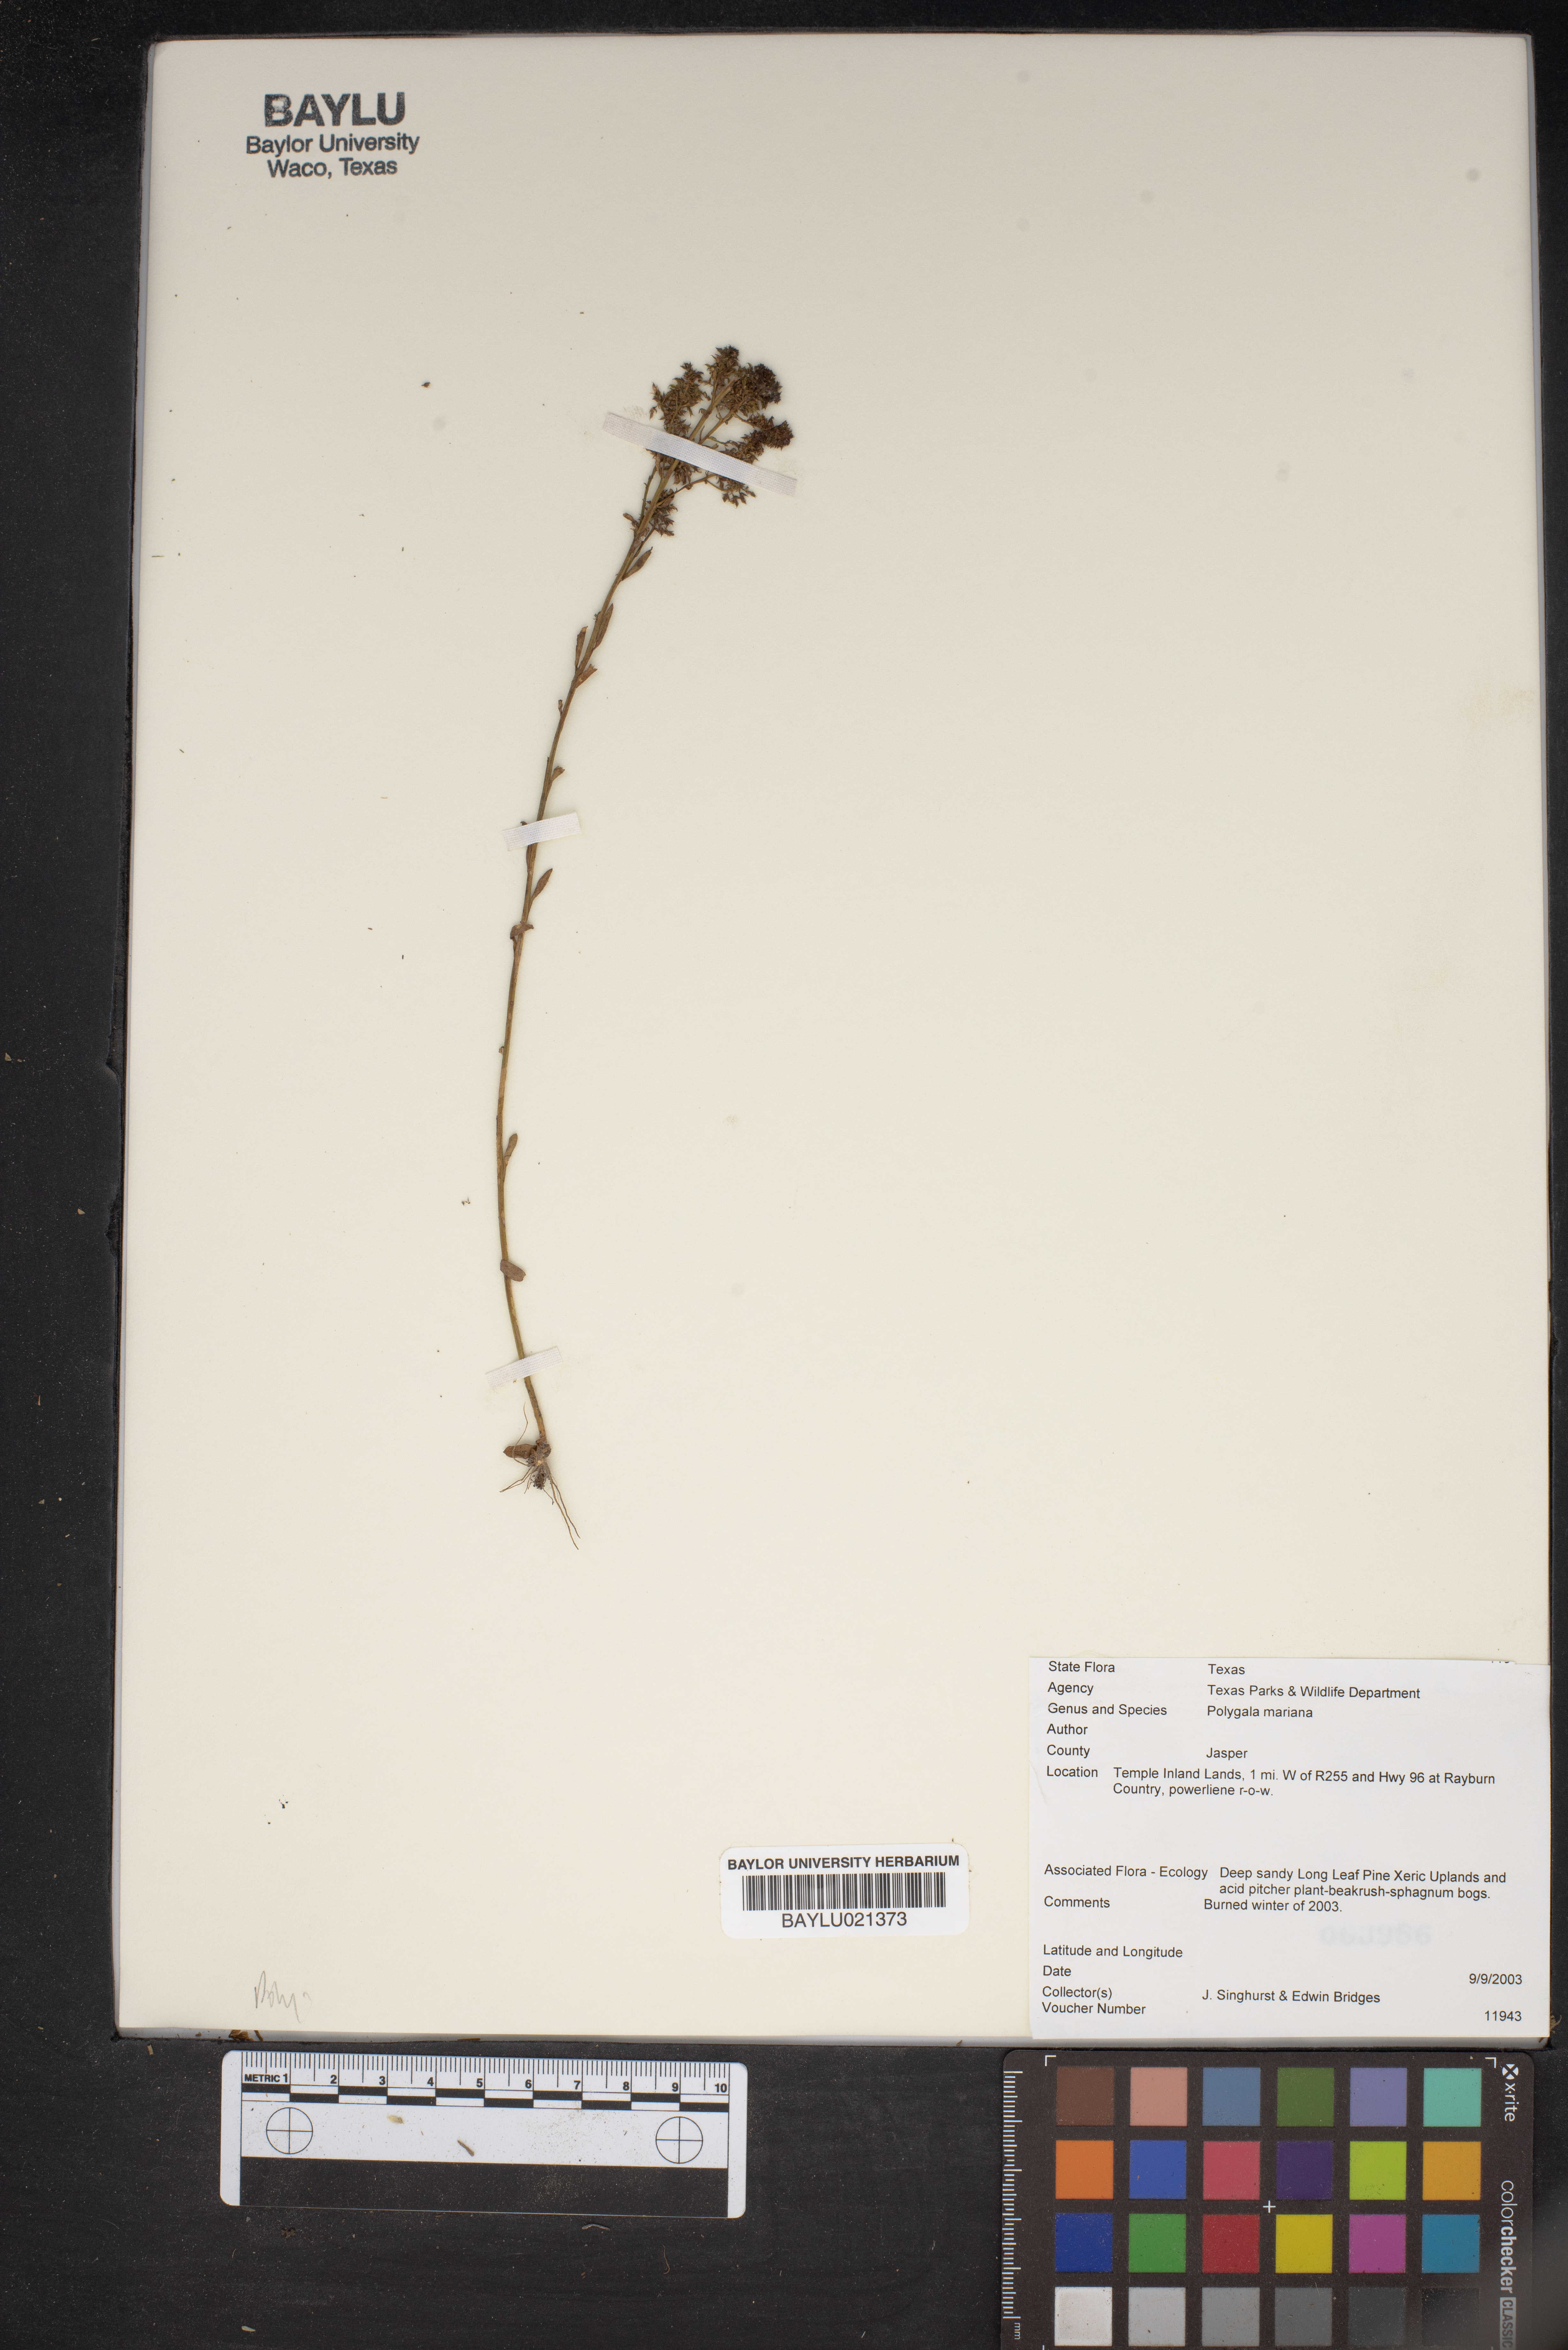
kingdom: Plantae
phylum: Tracheophyta
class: Magnoliopsida
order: Fabales
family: Polygalaceae
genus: Polygala
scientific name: Polygala mariana
